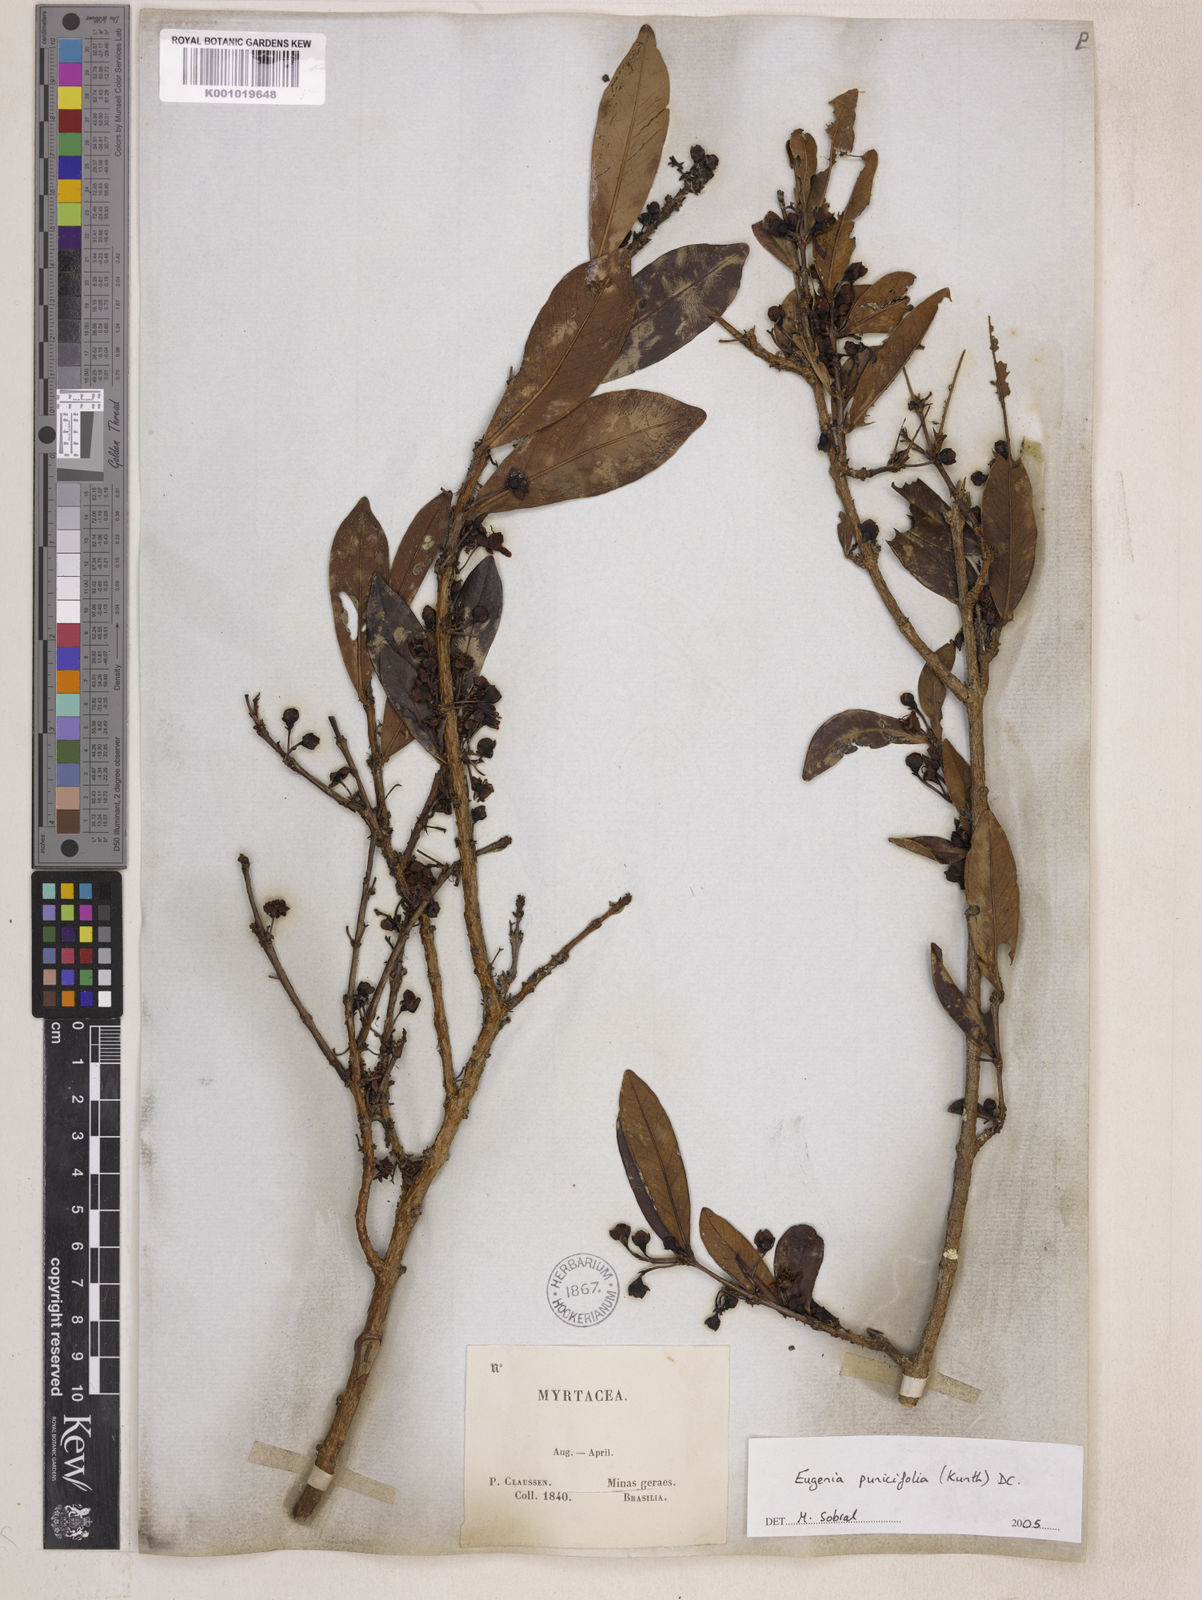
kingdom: Plantae
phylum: Tracheophyta
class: Magnoliopsida
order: Myrtales
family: Myrtaceae
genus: Eugenia
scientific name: Eugenia punicifolia
